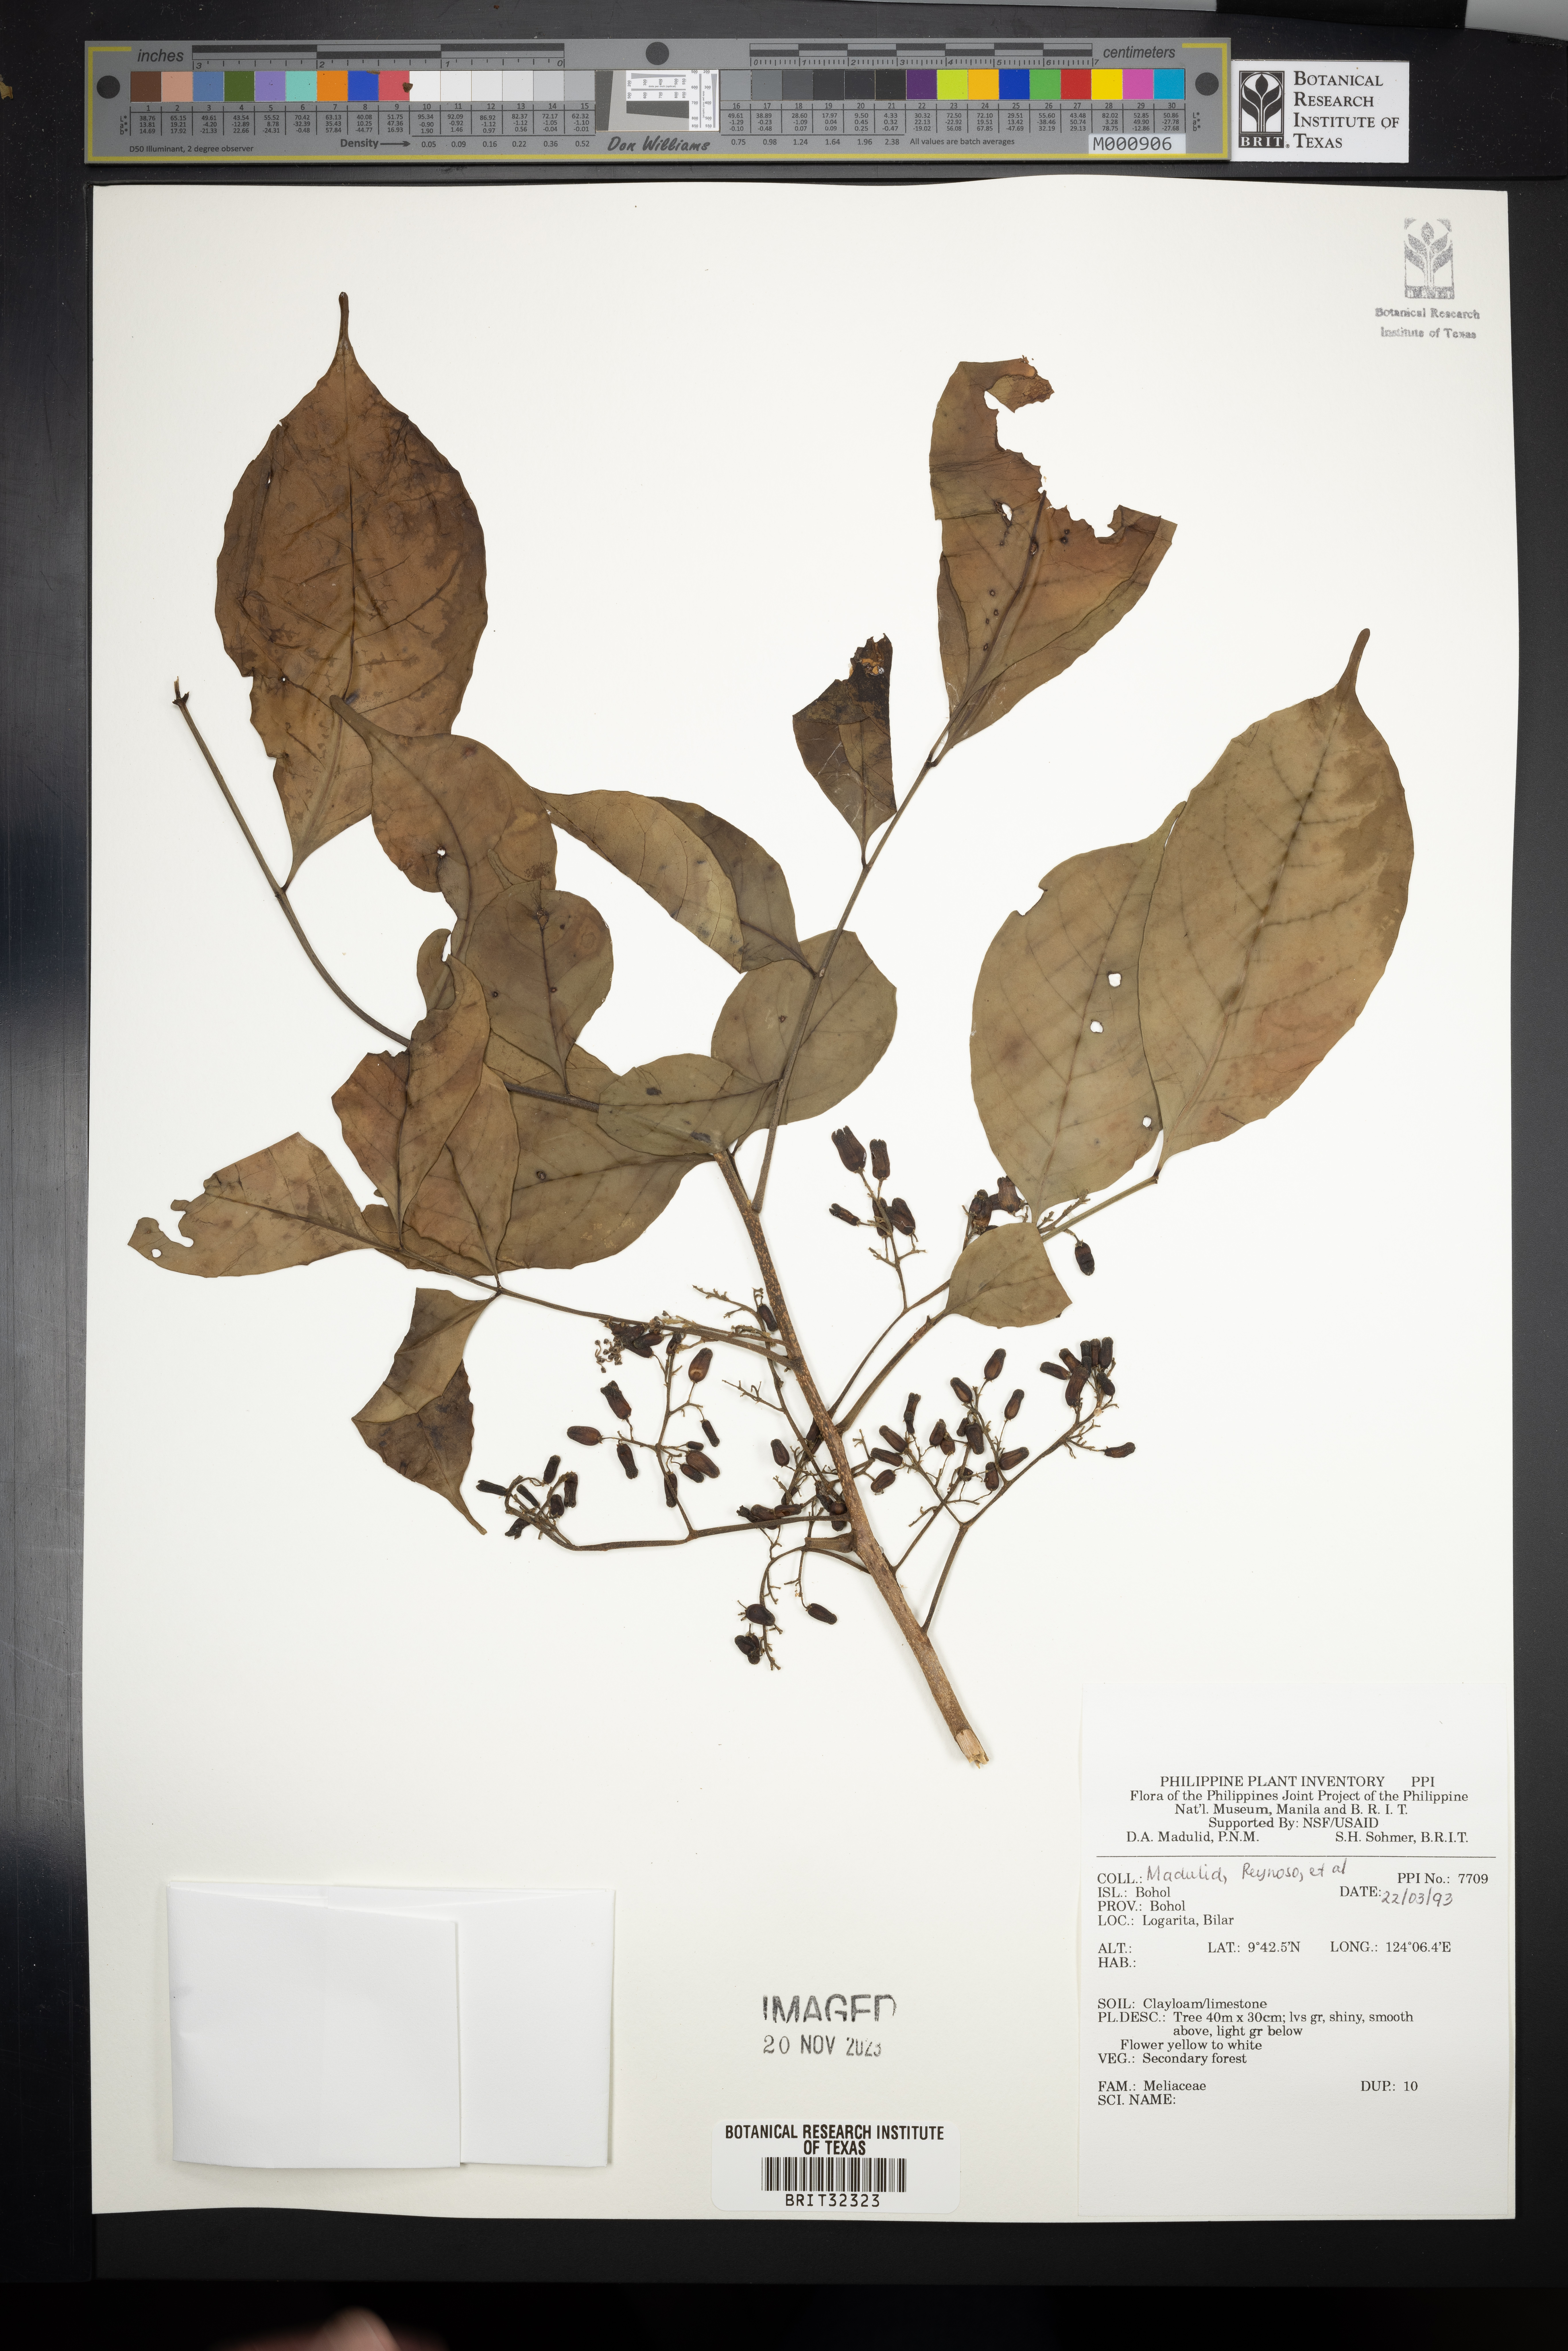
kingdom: Plantae
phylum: Tracheophyta
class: Magnoliopsida
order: Sapindales
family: Meliaceae
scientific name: Meliaceae
